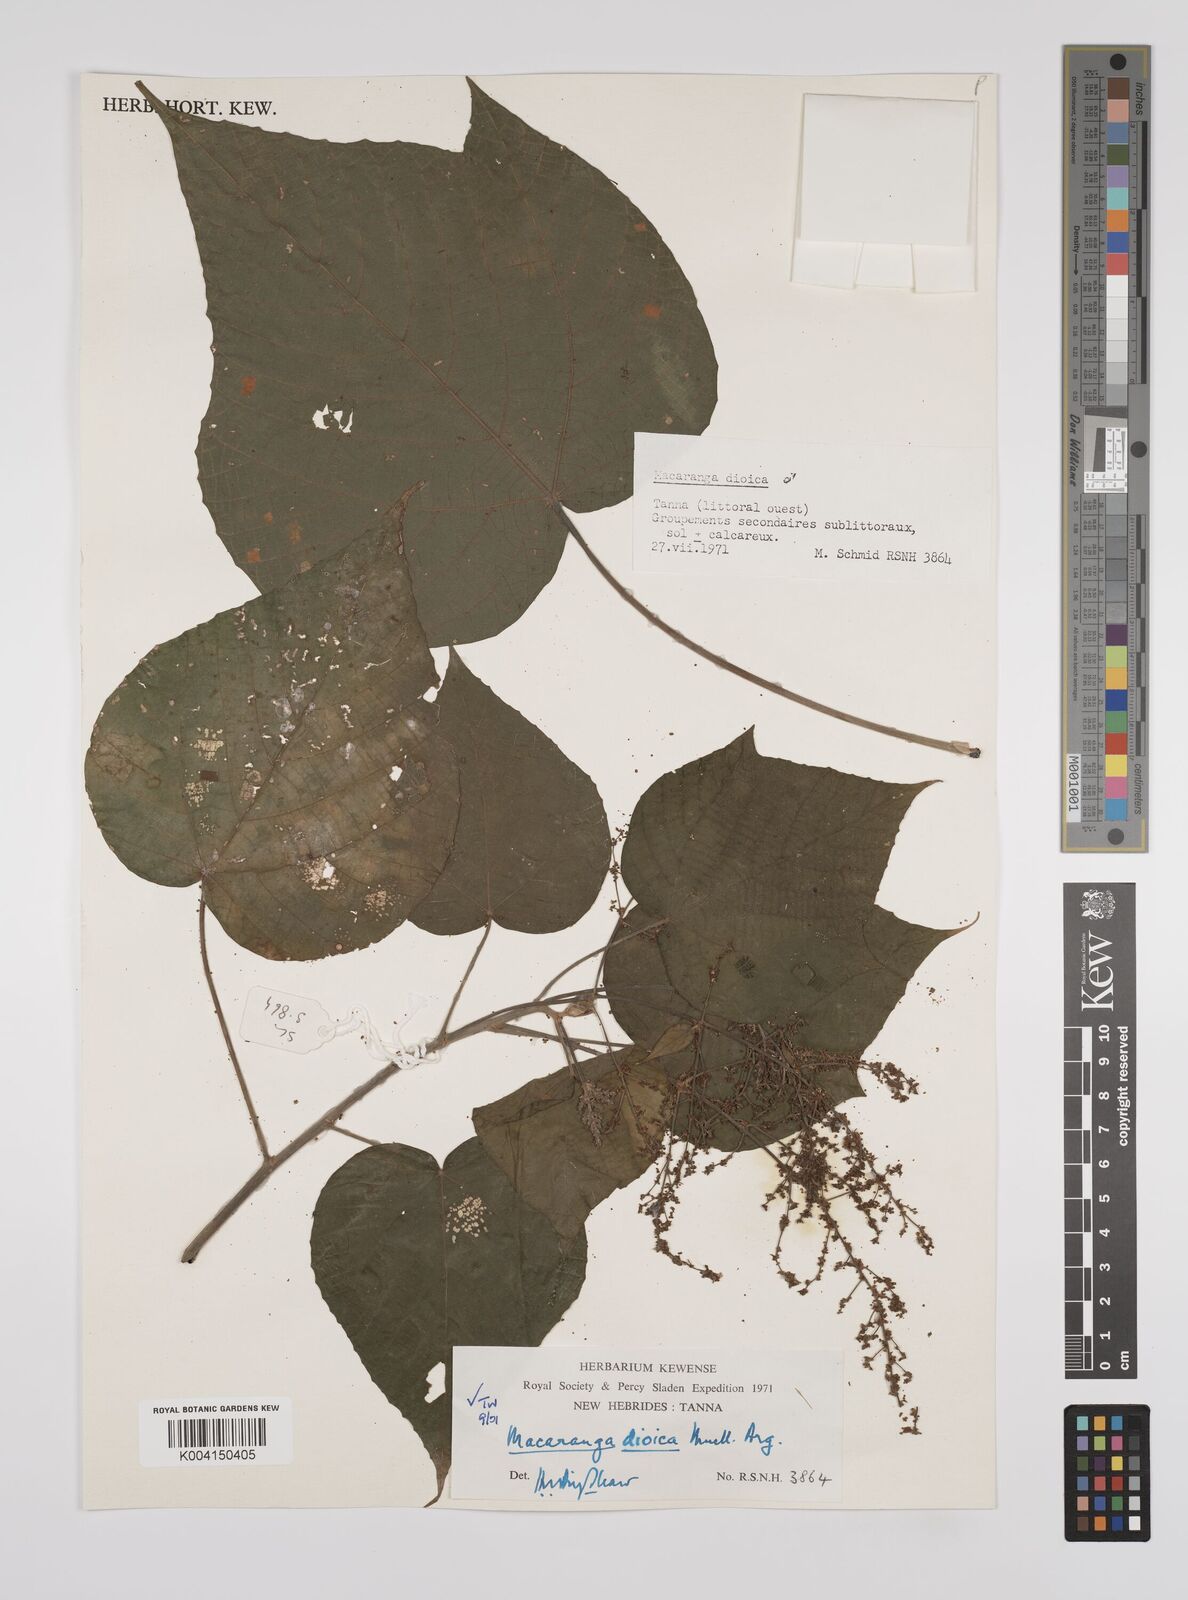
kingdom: Plantae
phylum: Tracheophyta
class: Magnoliopsida
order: Malpighiales
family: Euphorbiaceae
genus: Macaranga
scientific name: Macaranga dioica
